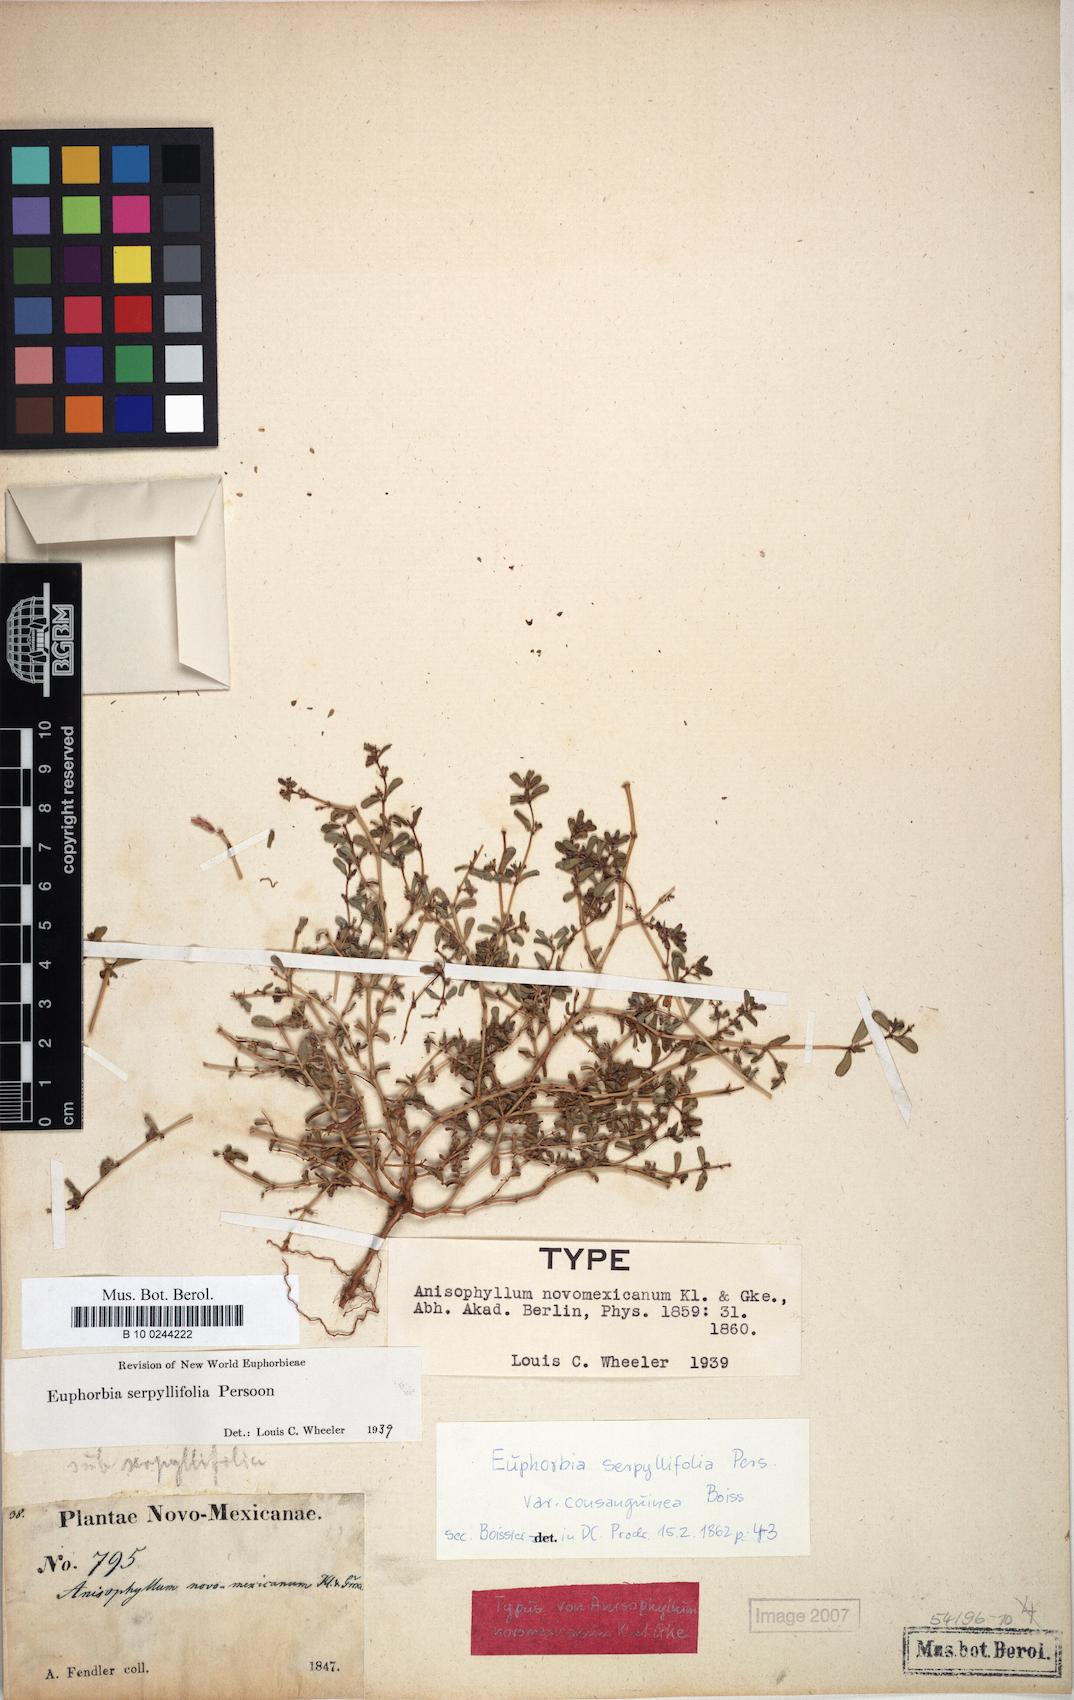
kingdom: Plantae
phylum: Tracheophyta
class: Magnoliopsida
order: Malpighiales
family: Euphorbiaceae
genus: Euphorbia
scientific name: Euphorbia serpillifolia
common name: Thyme-leaf spurge
